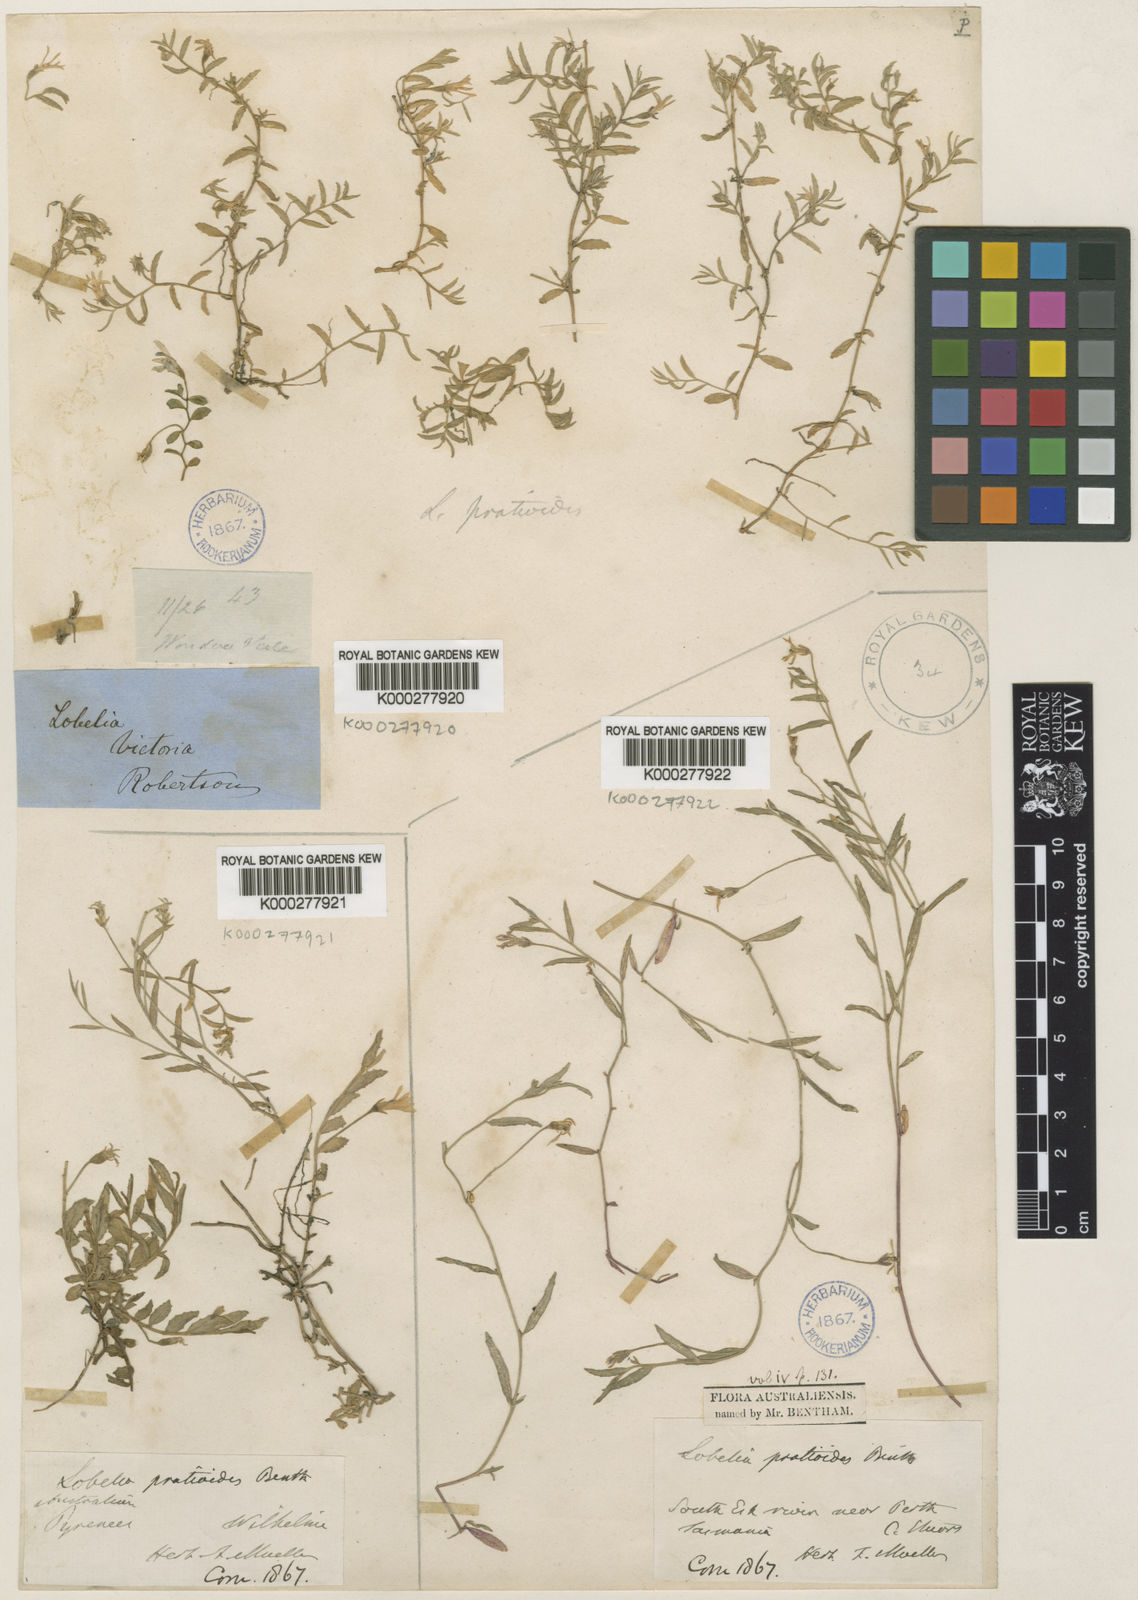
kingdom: Plantae
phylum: Tracheophyta
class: Magnoliopsida
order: Asterales
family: Campanulaceae
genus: Lobelia
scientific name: Lobelia pratioides
